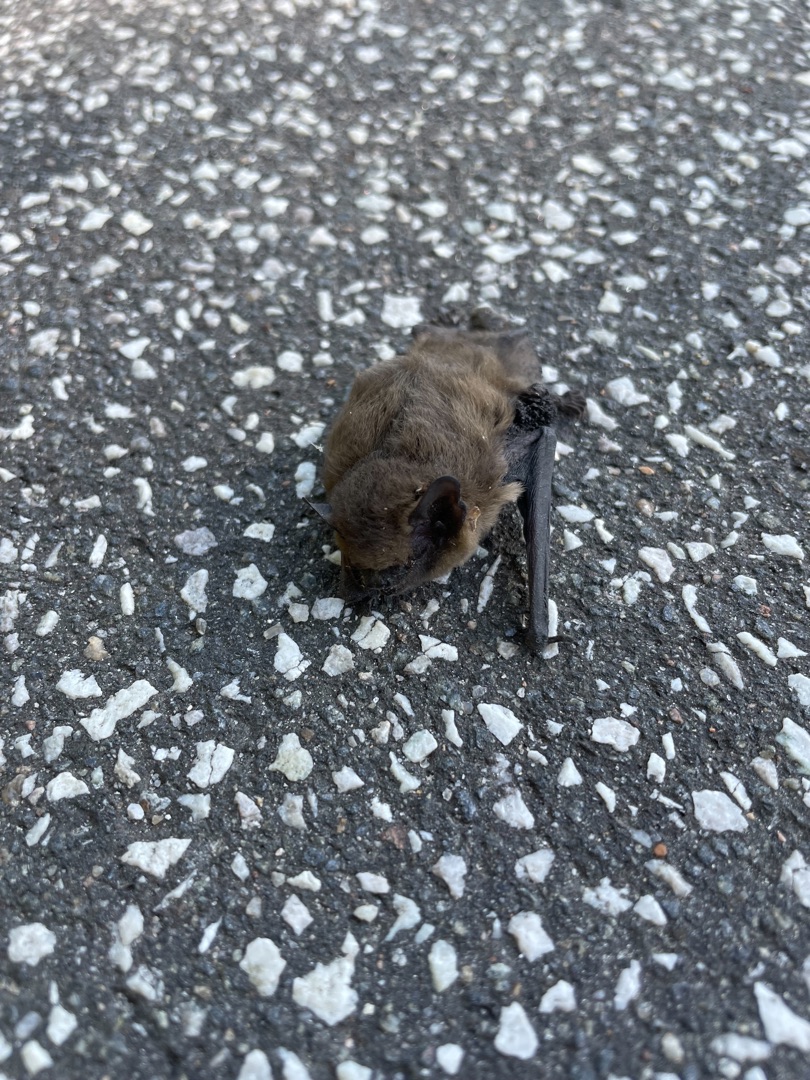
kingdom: Animalia
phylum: Chordata
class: Mammalia
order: Chiroptera
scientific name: Chiroptera
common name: Flagermus
